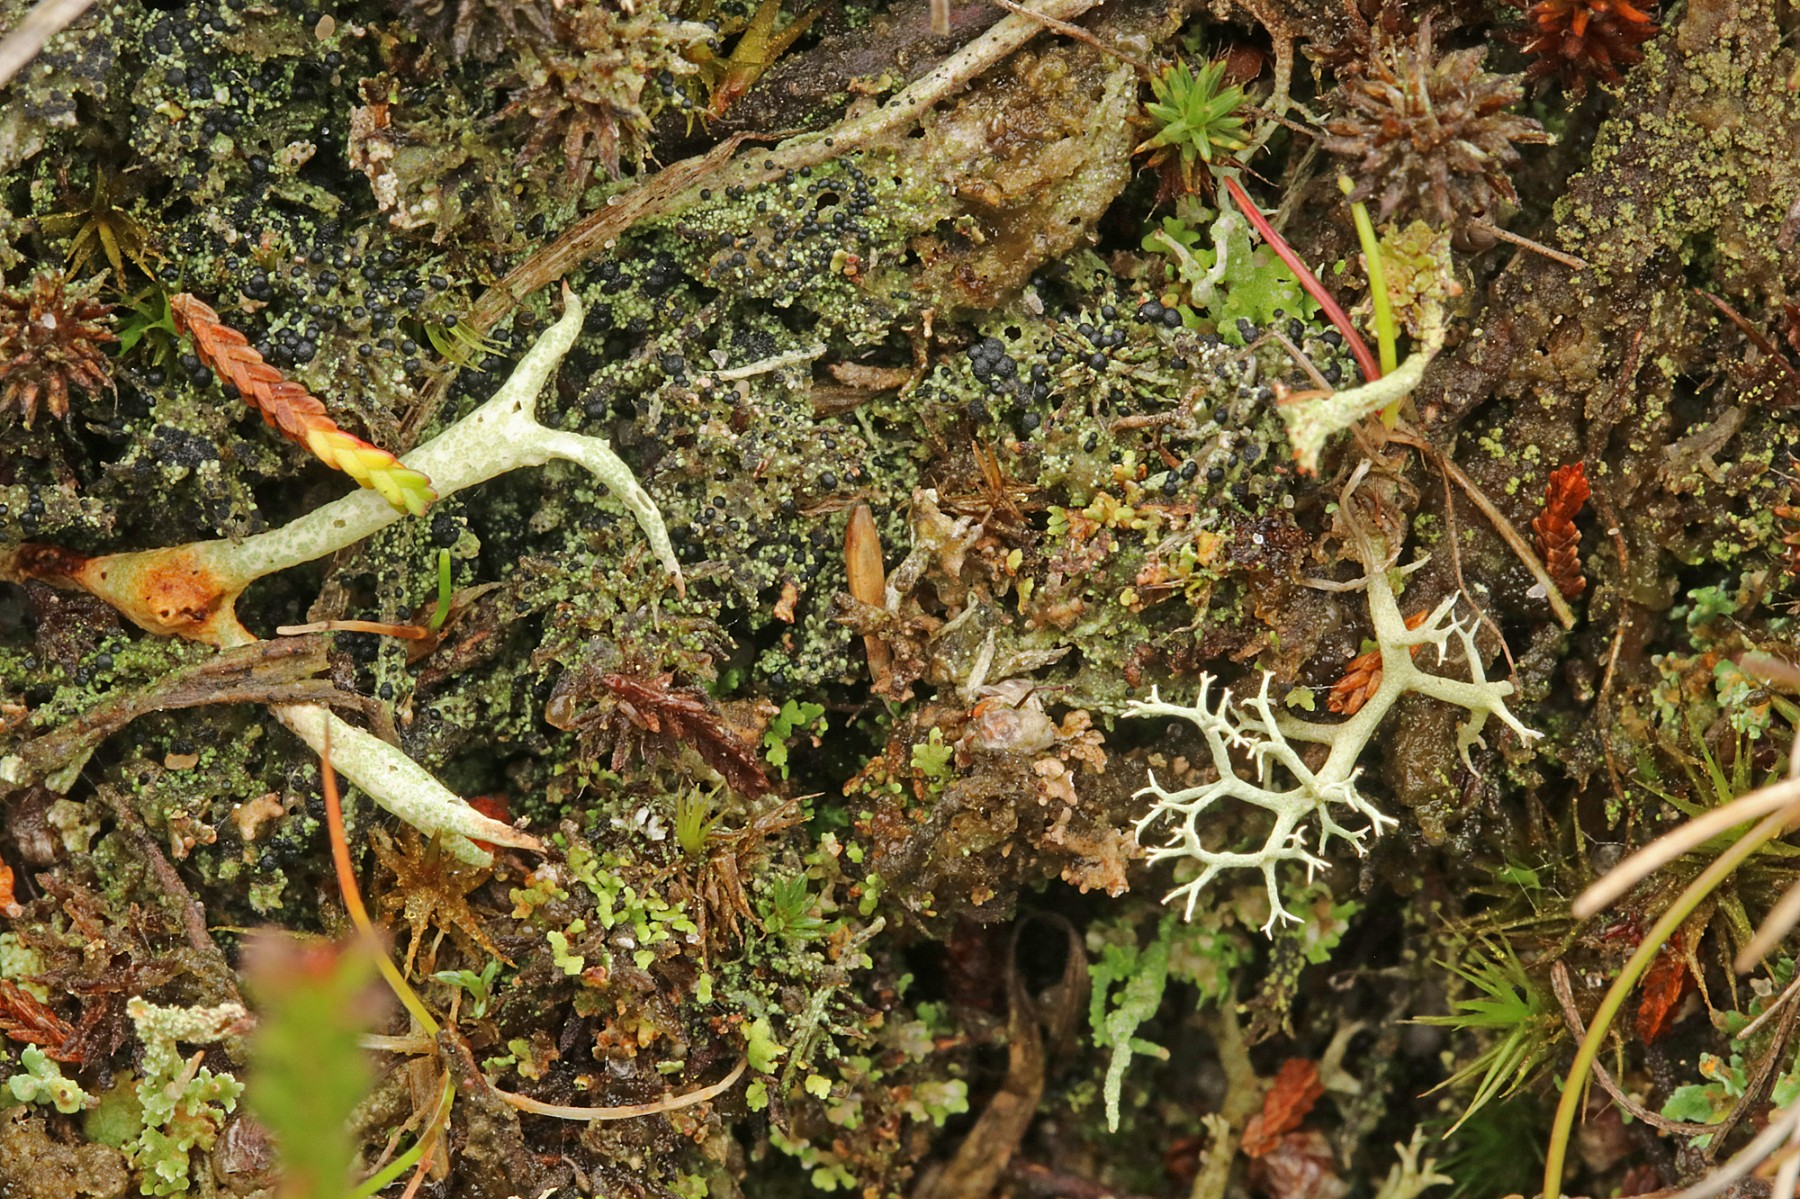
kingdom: Fungi
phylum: Ascomycota
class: Lecanoromycetes
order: Lecanorales
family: Byssolomataceae
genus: Micarea
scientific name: Micarea lignaria
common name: tørve-knaplav
